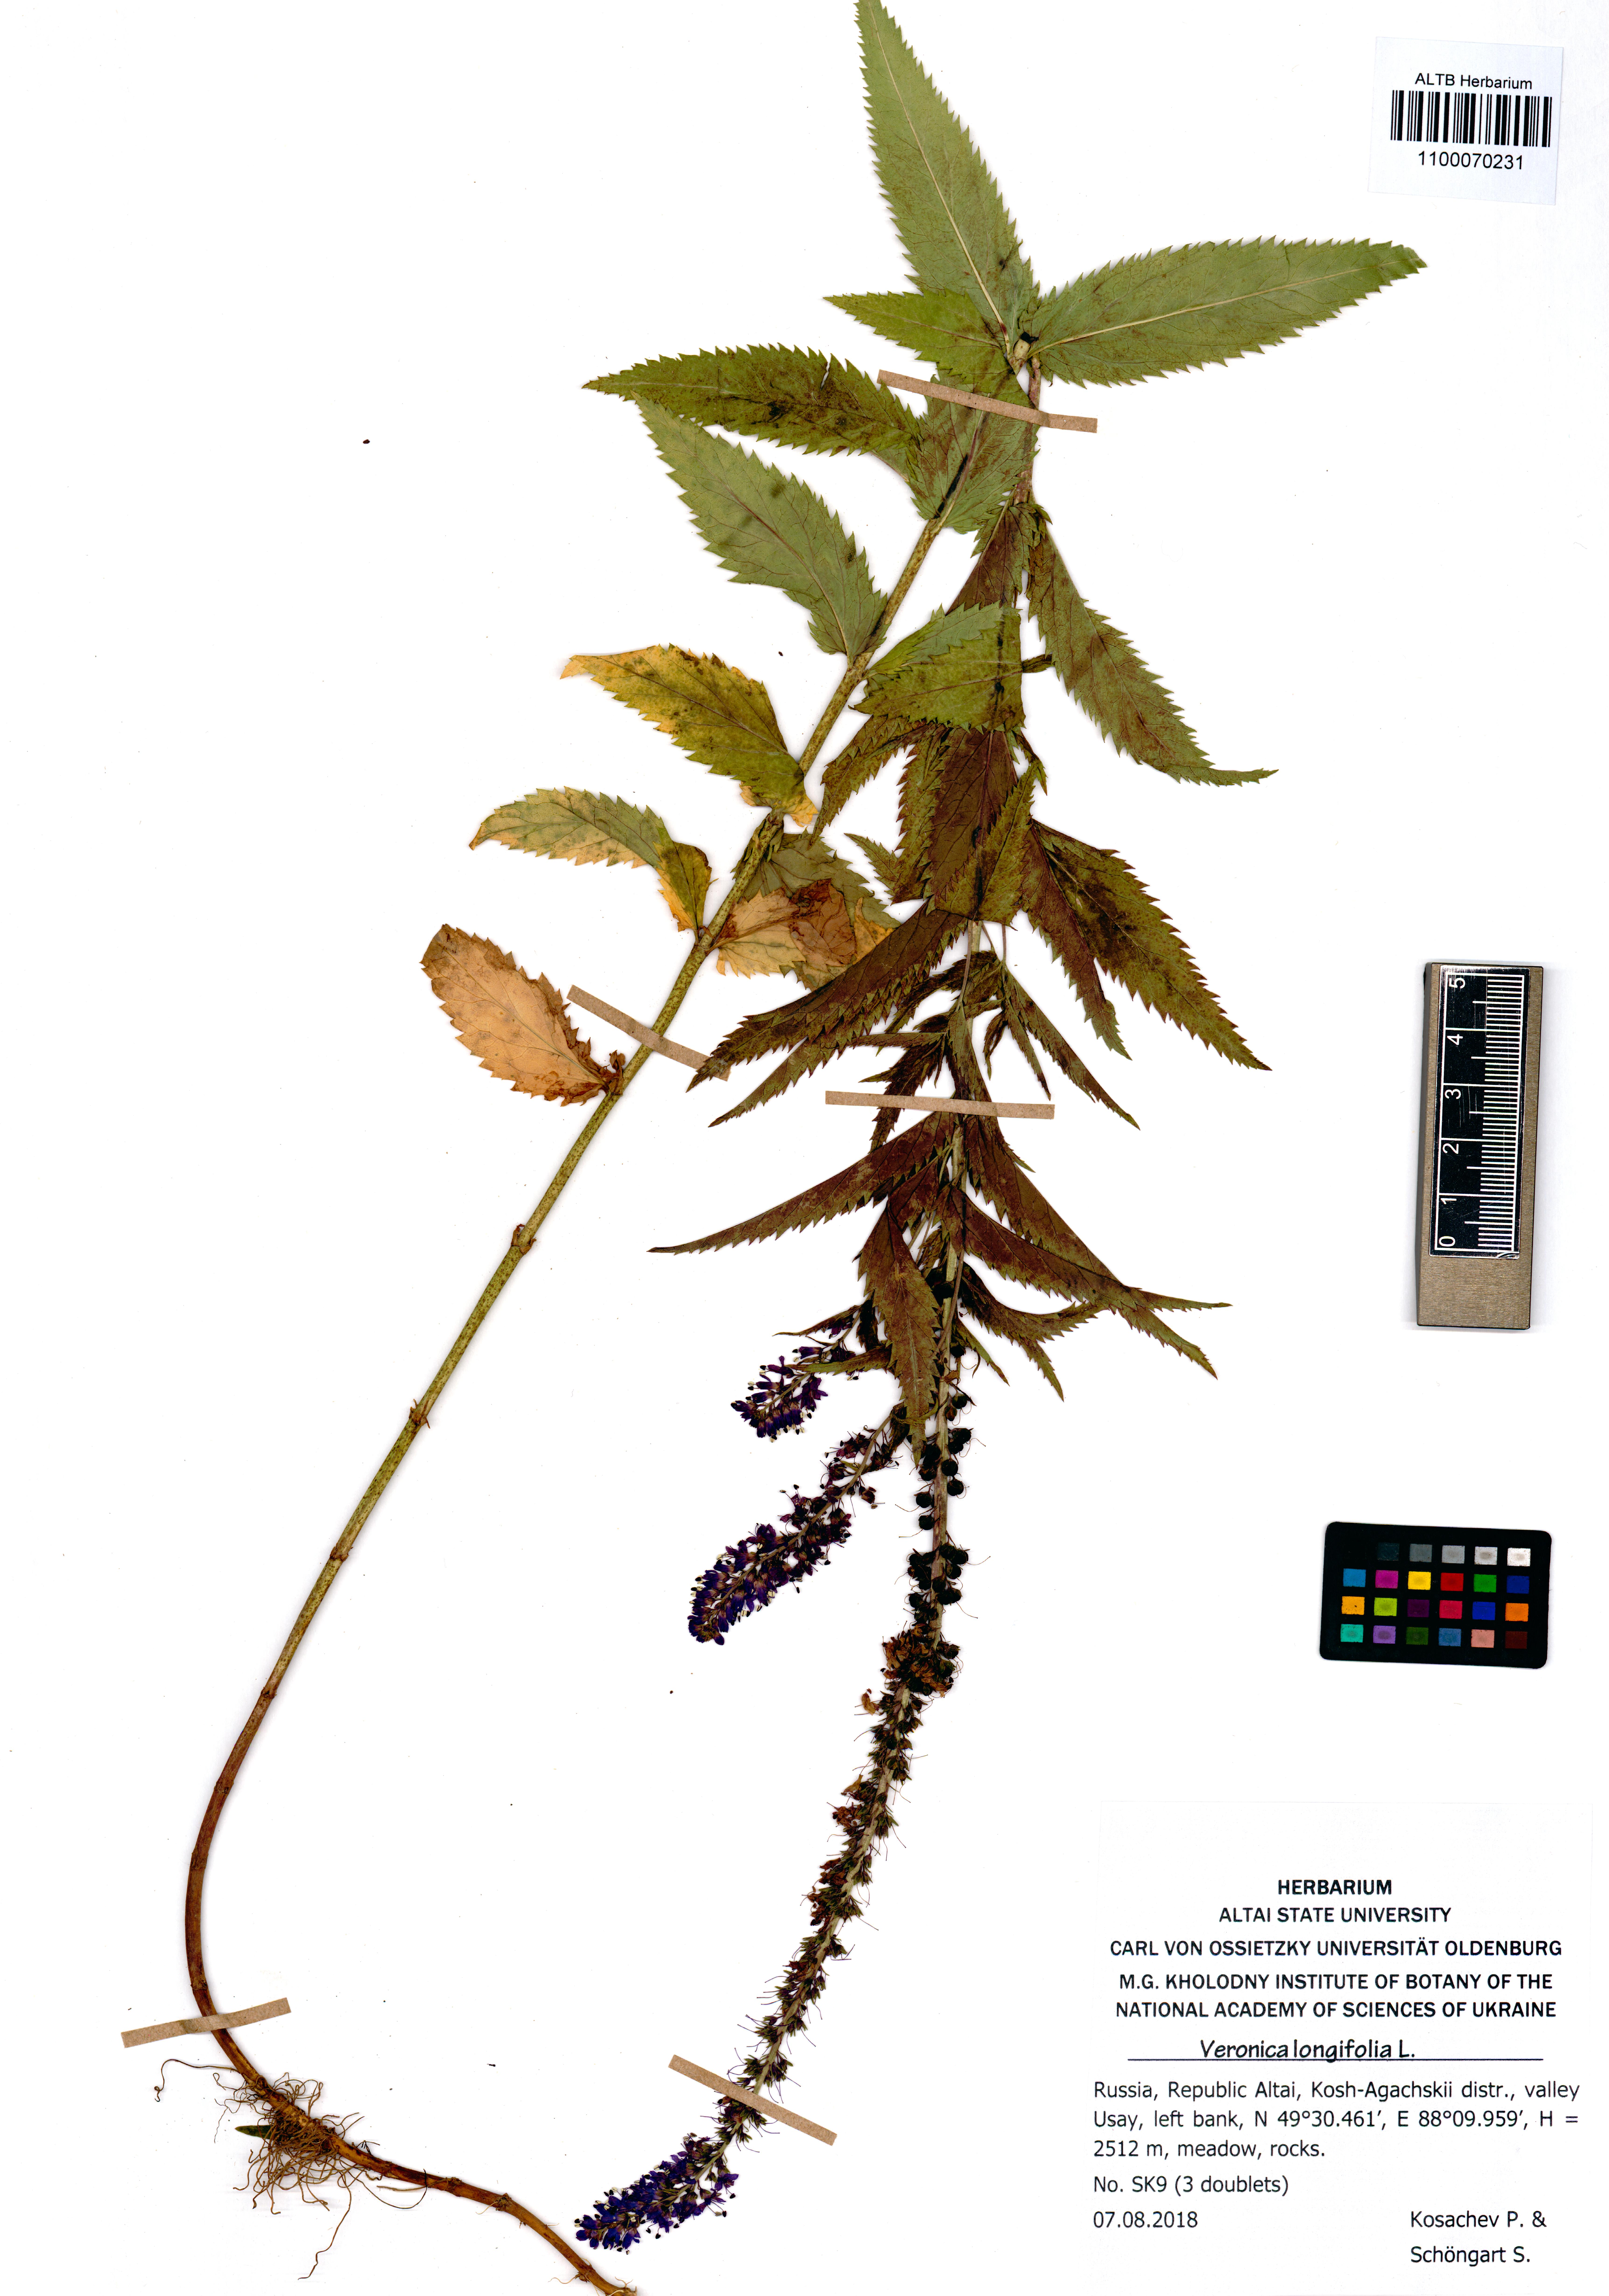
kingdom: Plantae
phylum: Tracheophyta
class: Magnoliopsida
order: Lamiales
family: Plantaginaceae
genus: Veronica
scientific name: Veronica longifolia
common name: Garden speedwell
